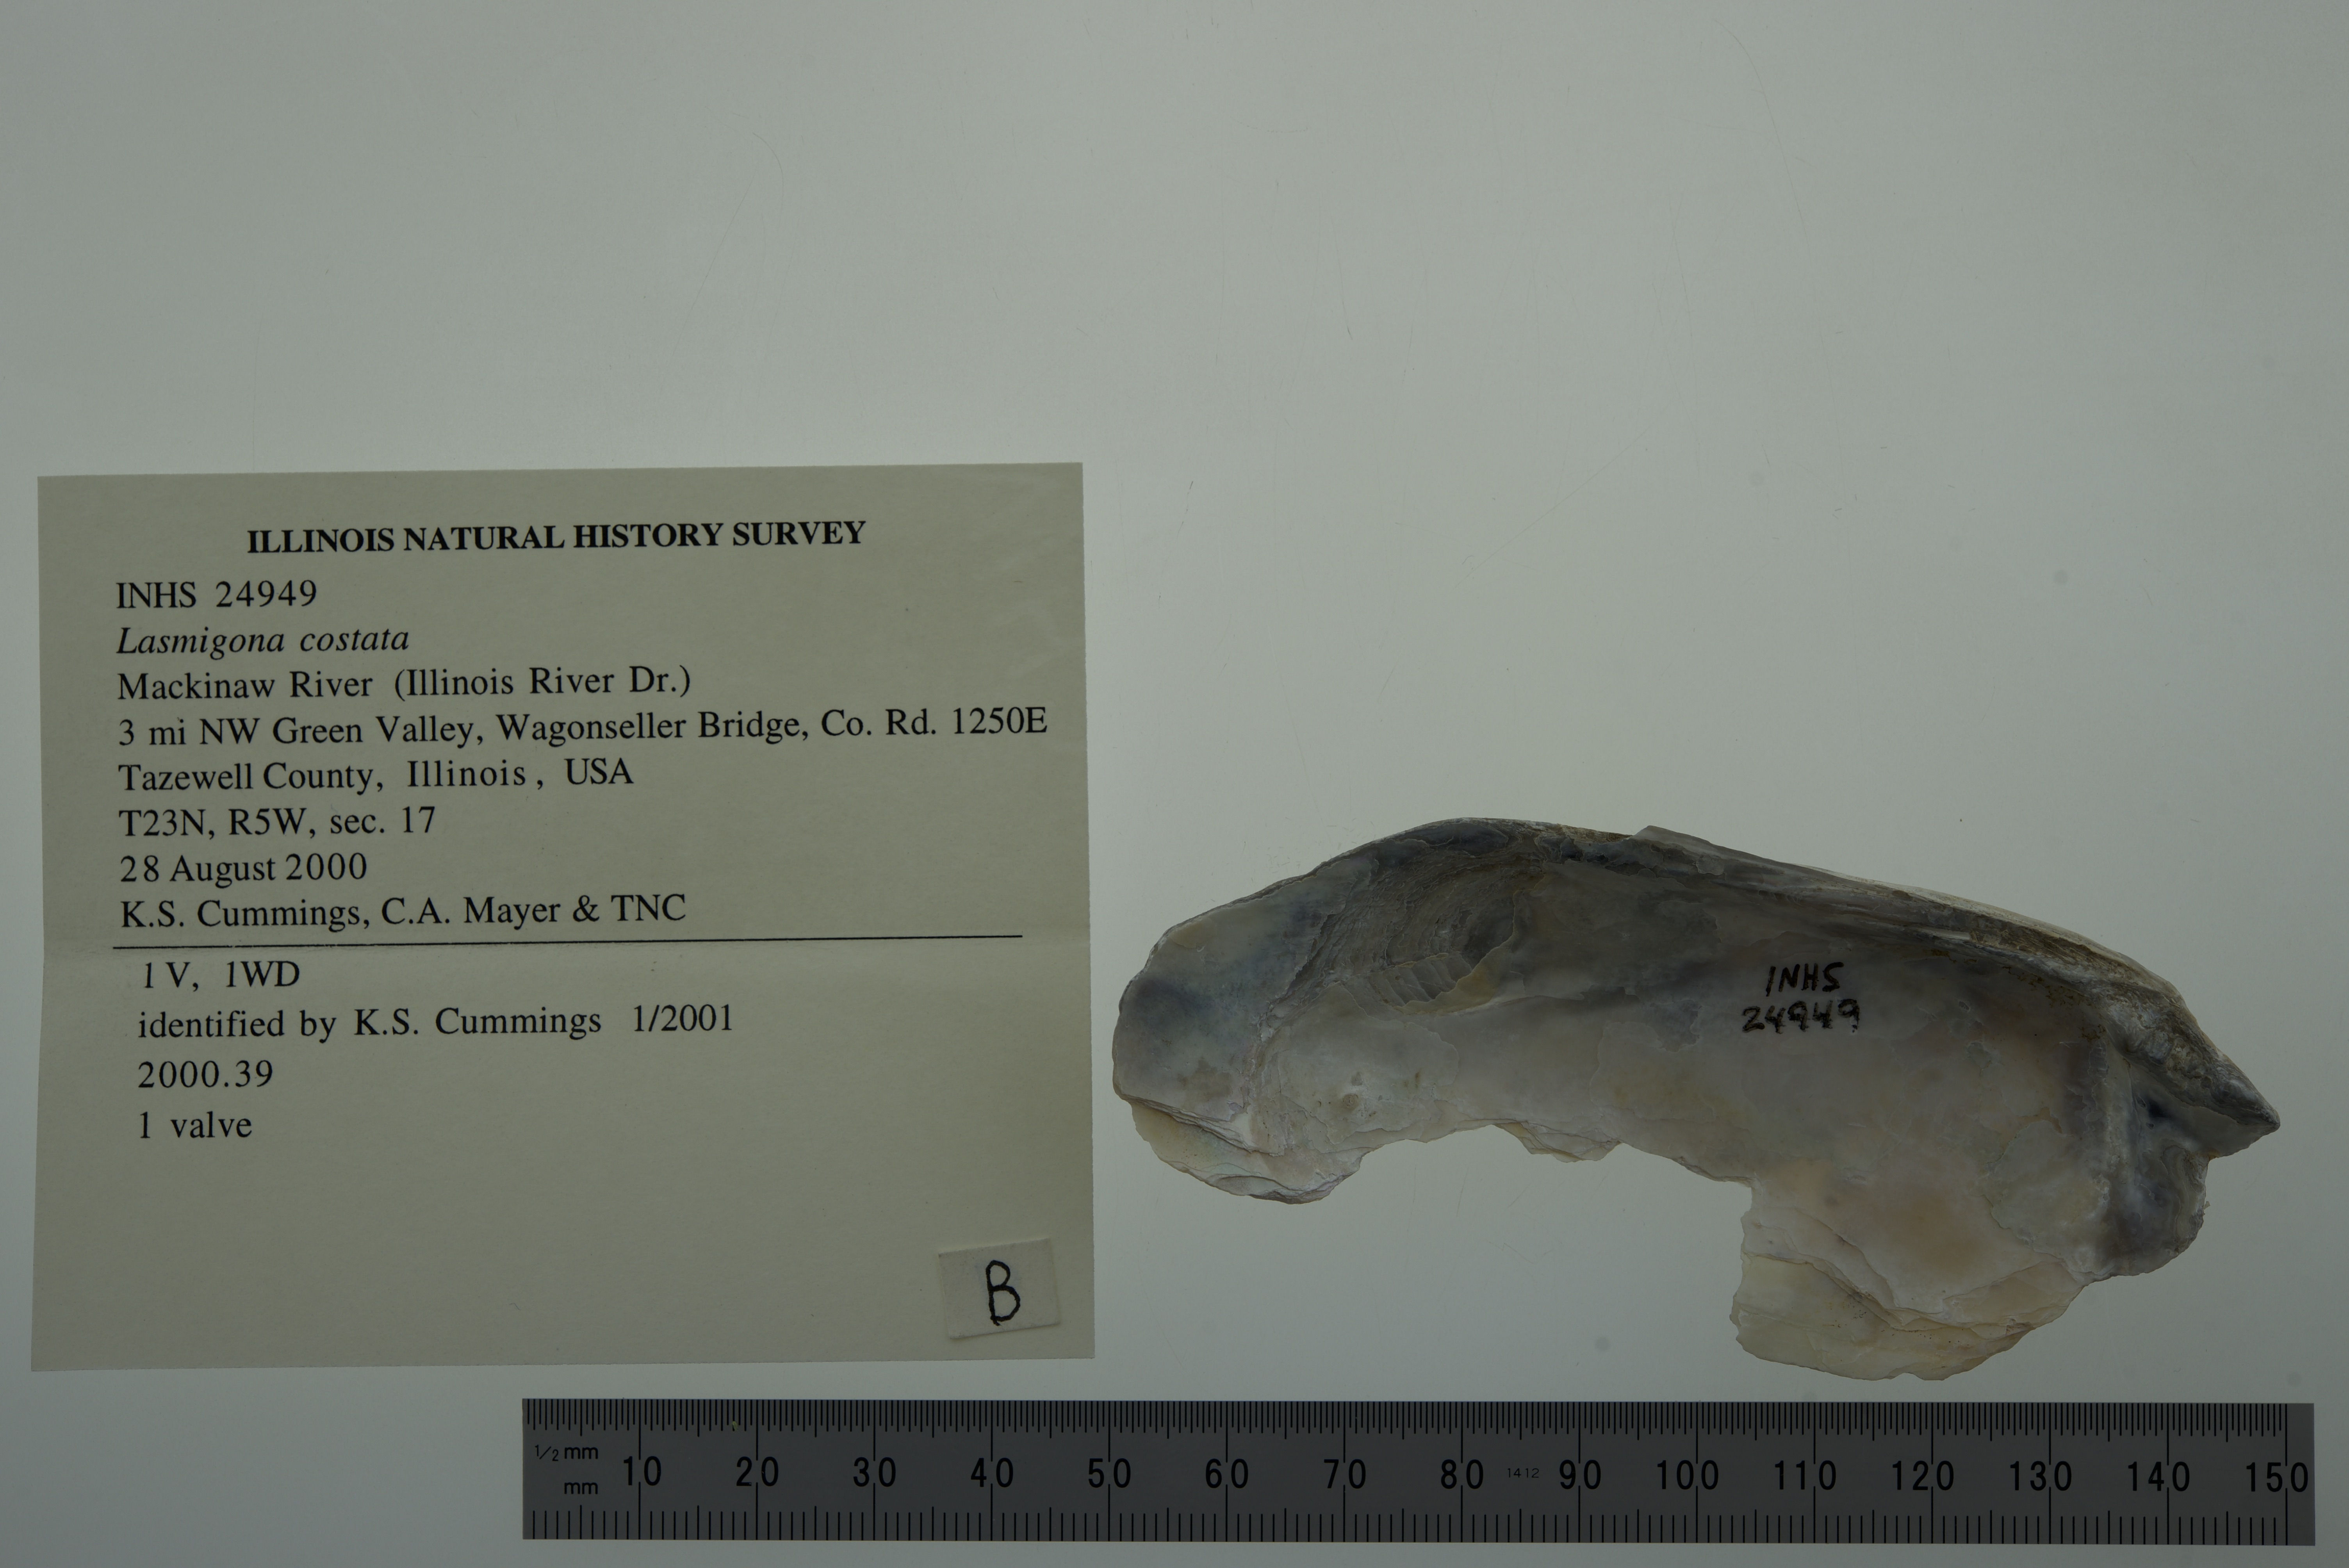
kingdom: Animalia
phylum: Mollusca
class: Bivalvia
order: Unionida
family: Unionidae
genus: Lasmigona
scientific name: Lasmigona costata
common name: Flutedshell
